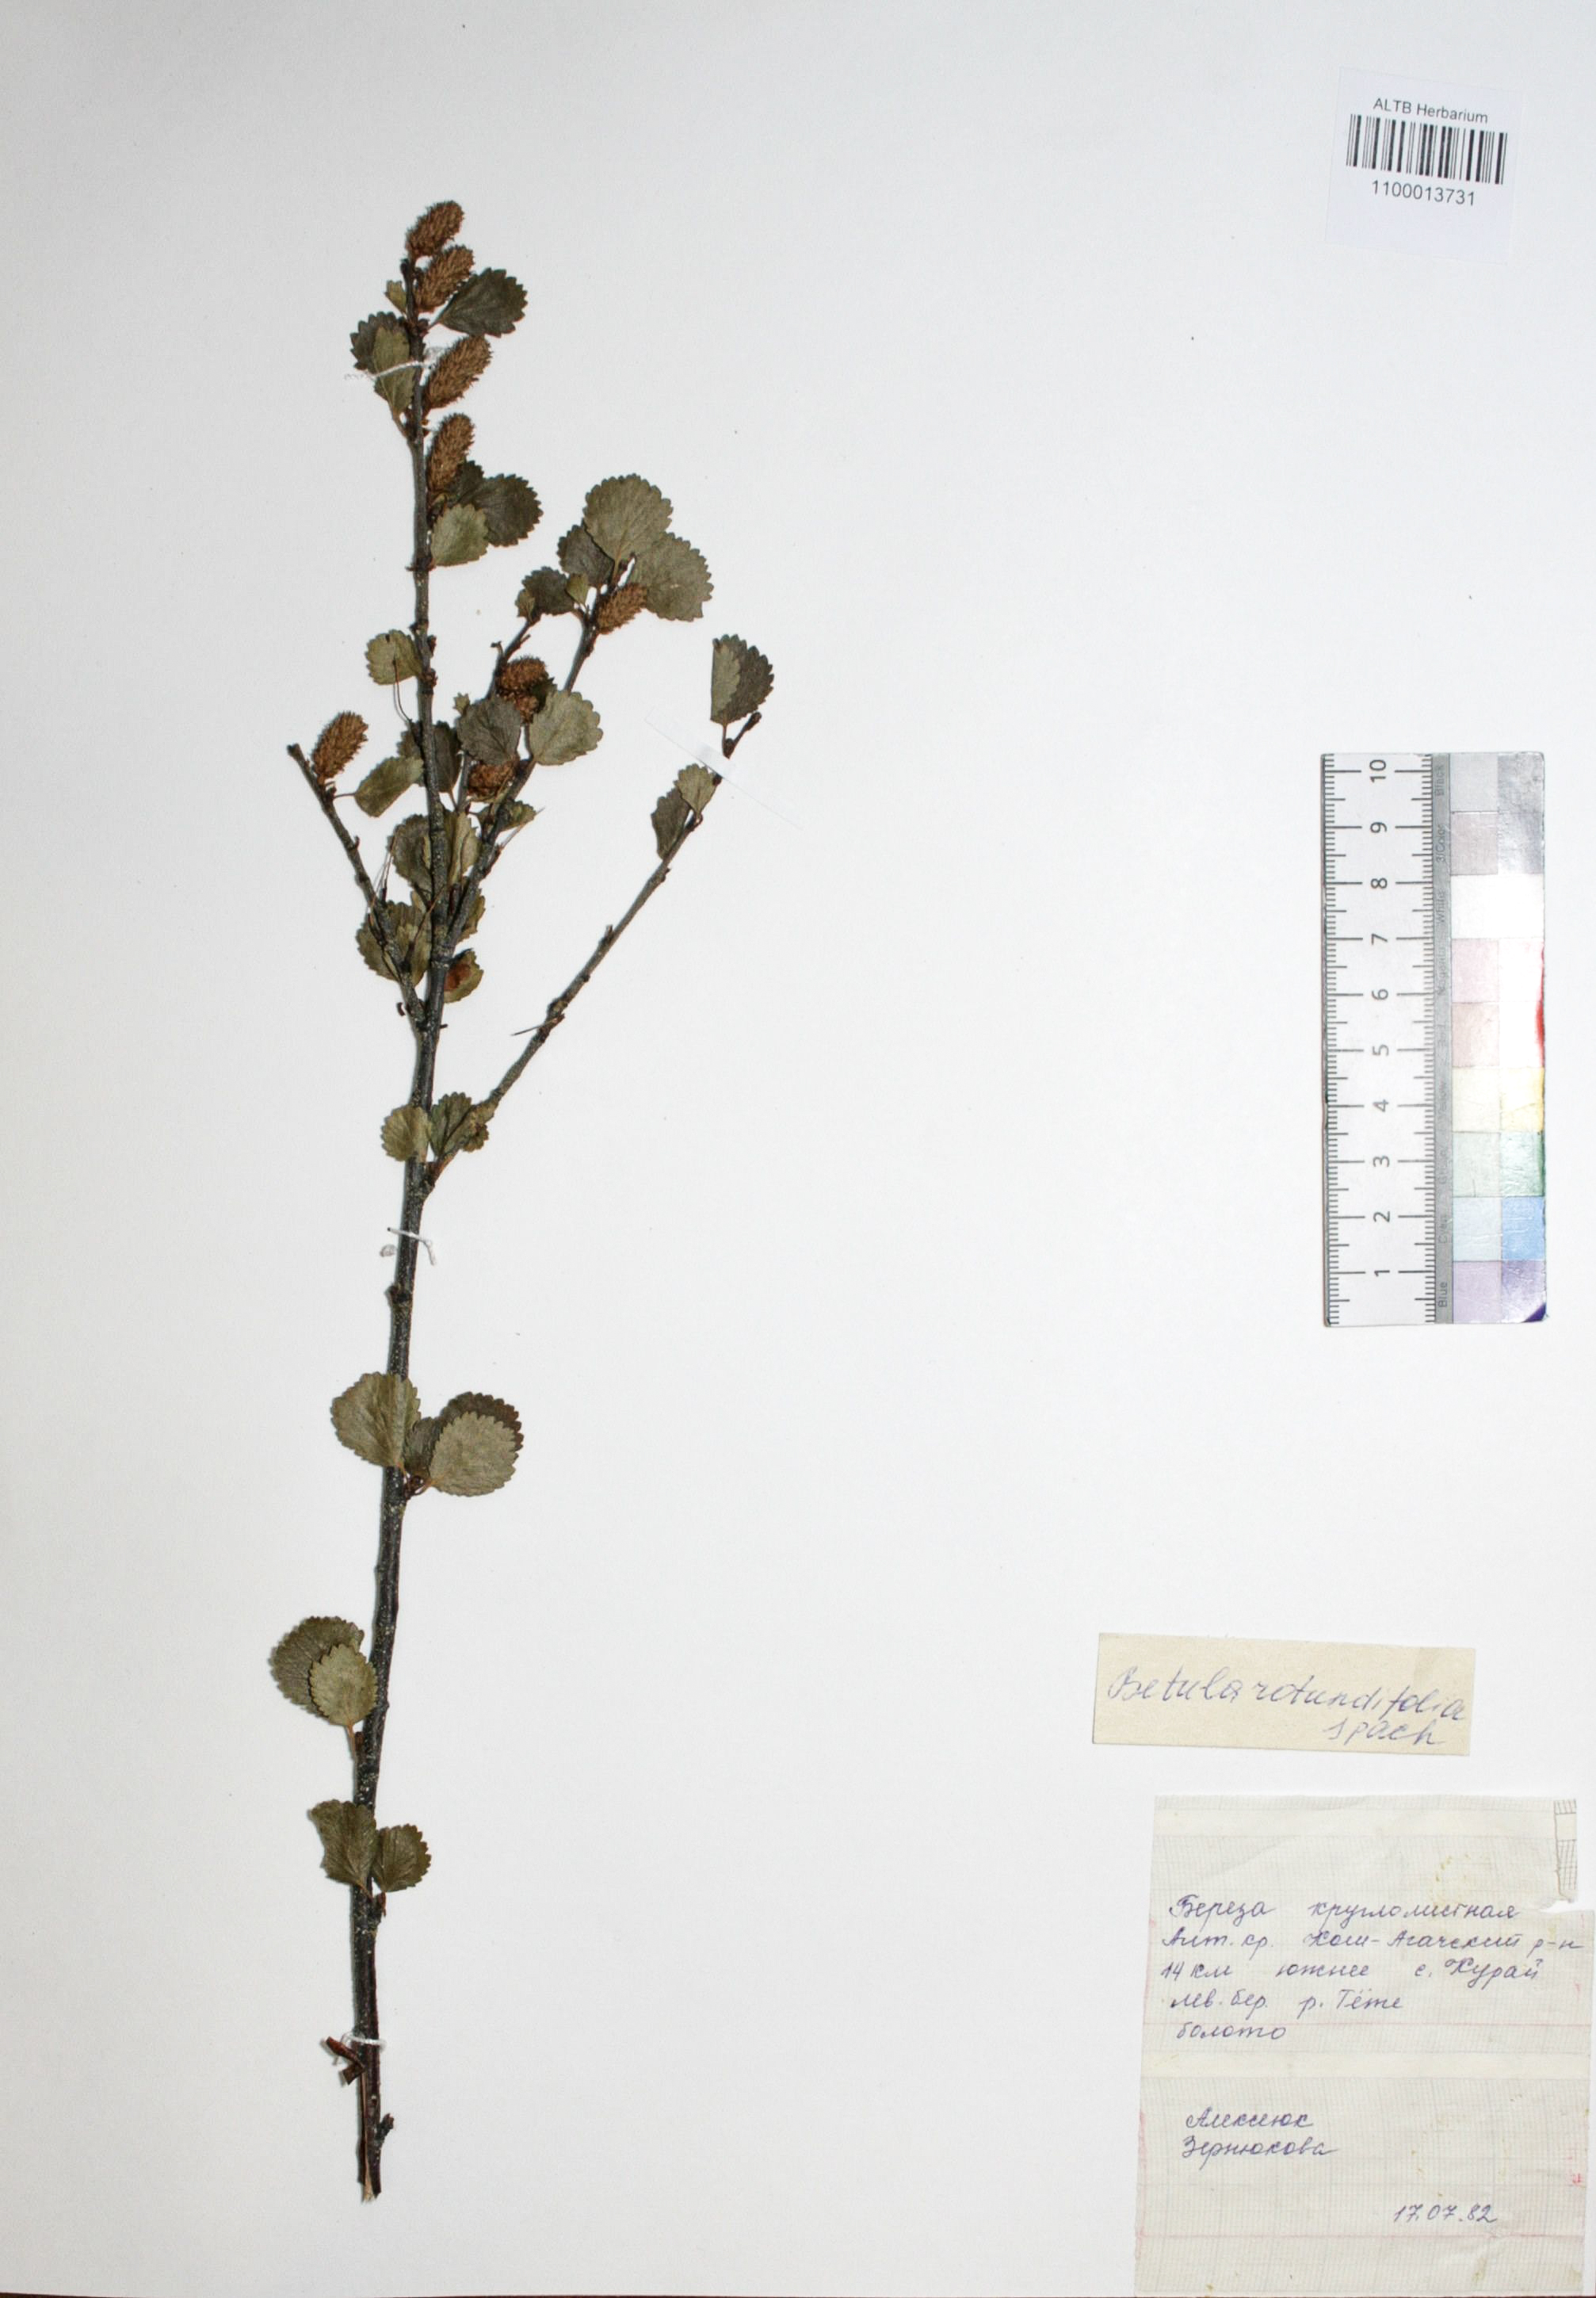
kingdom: Plantae
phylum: Tracheophyta
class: Magnoliopsida
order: Fagales
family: Betulaceae
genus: Betula
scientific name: Betula glandulosa
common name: Dwarf birch
